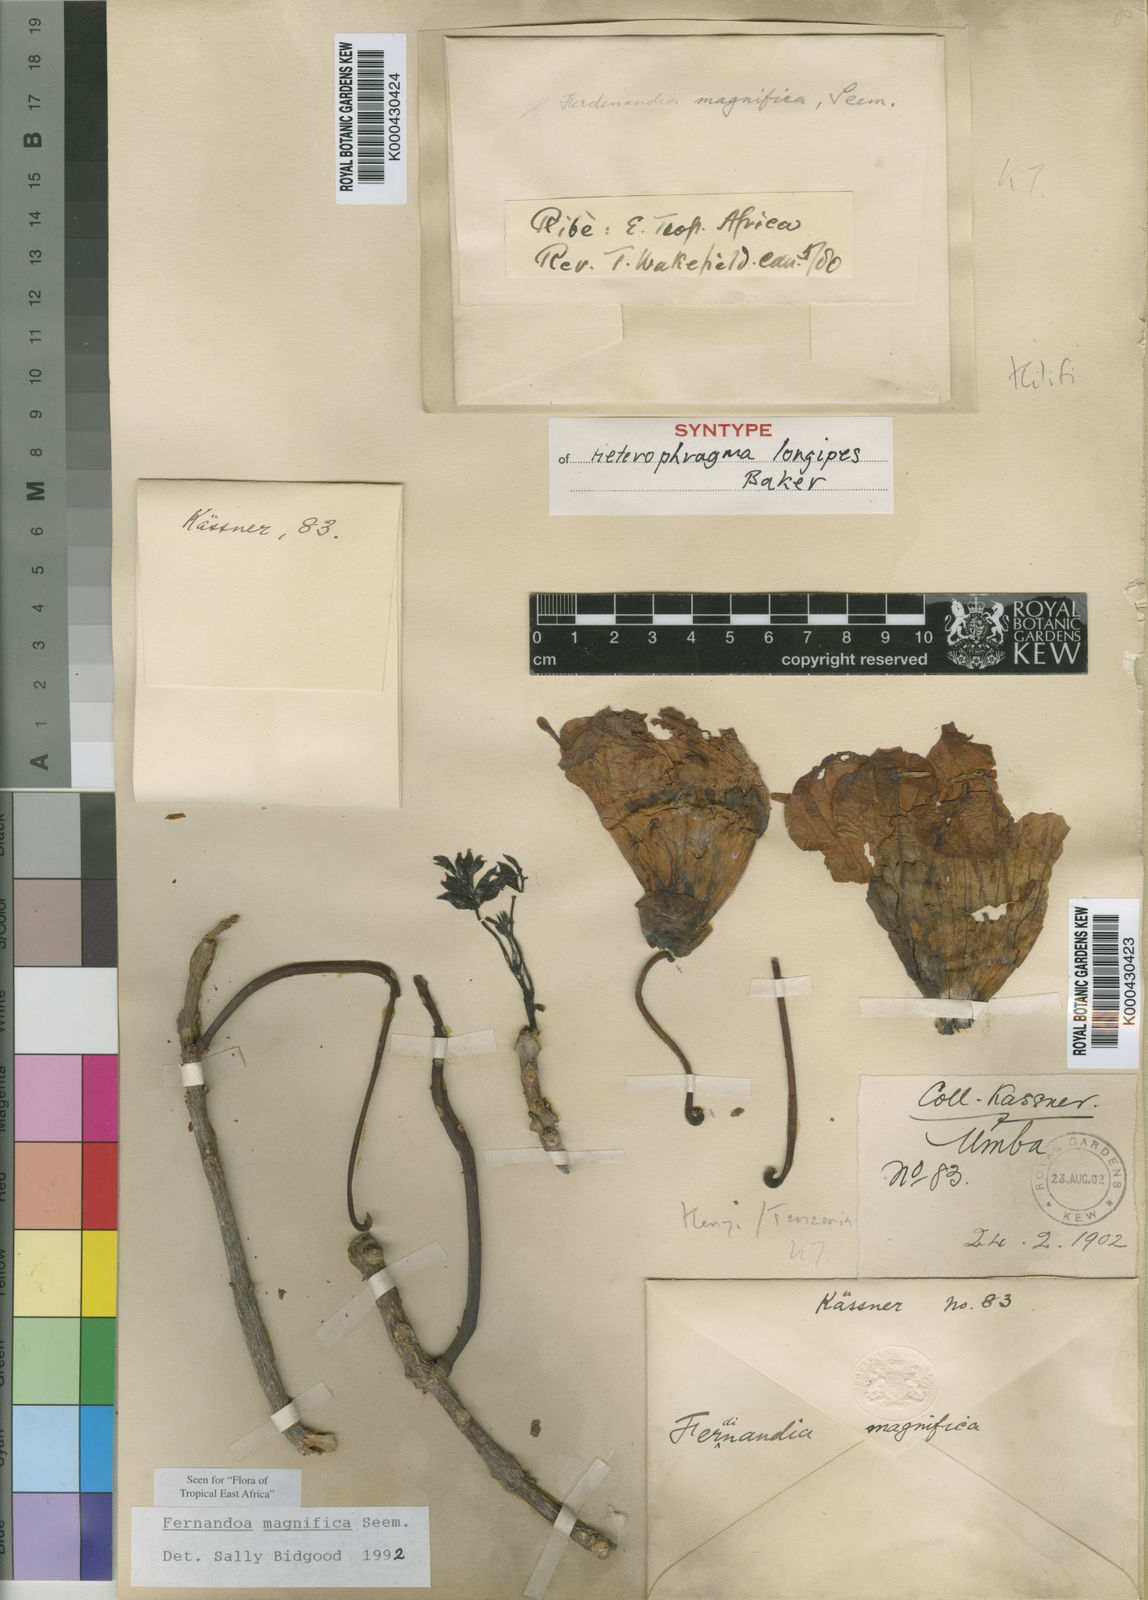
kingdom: Plantae
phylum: Tracheophyta
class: Magnoliopsida
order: Lamiales
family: Bignoniaceae
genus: Fernandoa
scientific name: Fernandoa magnifica
